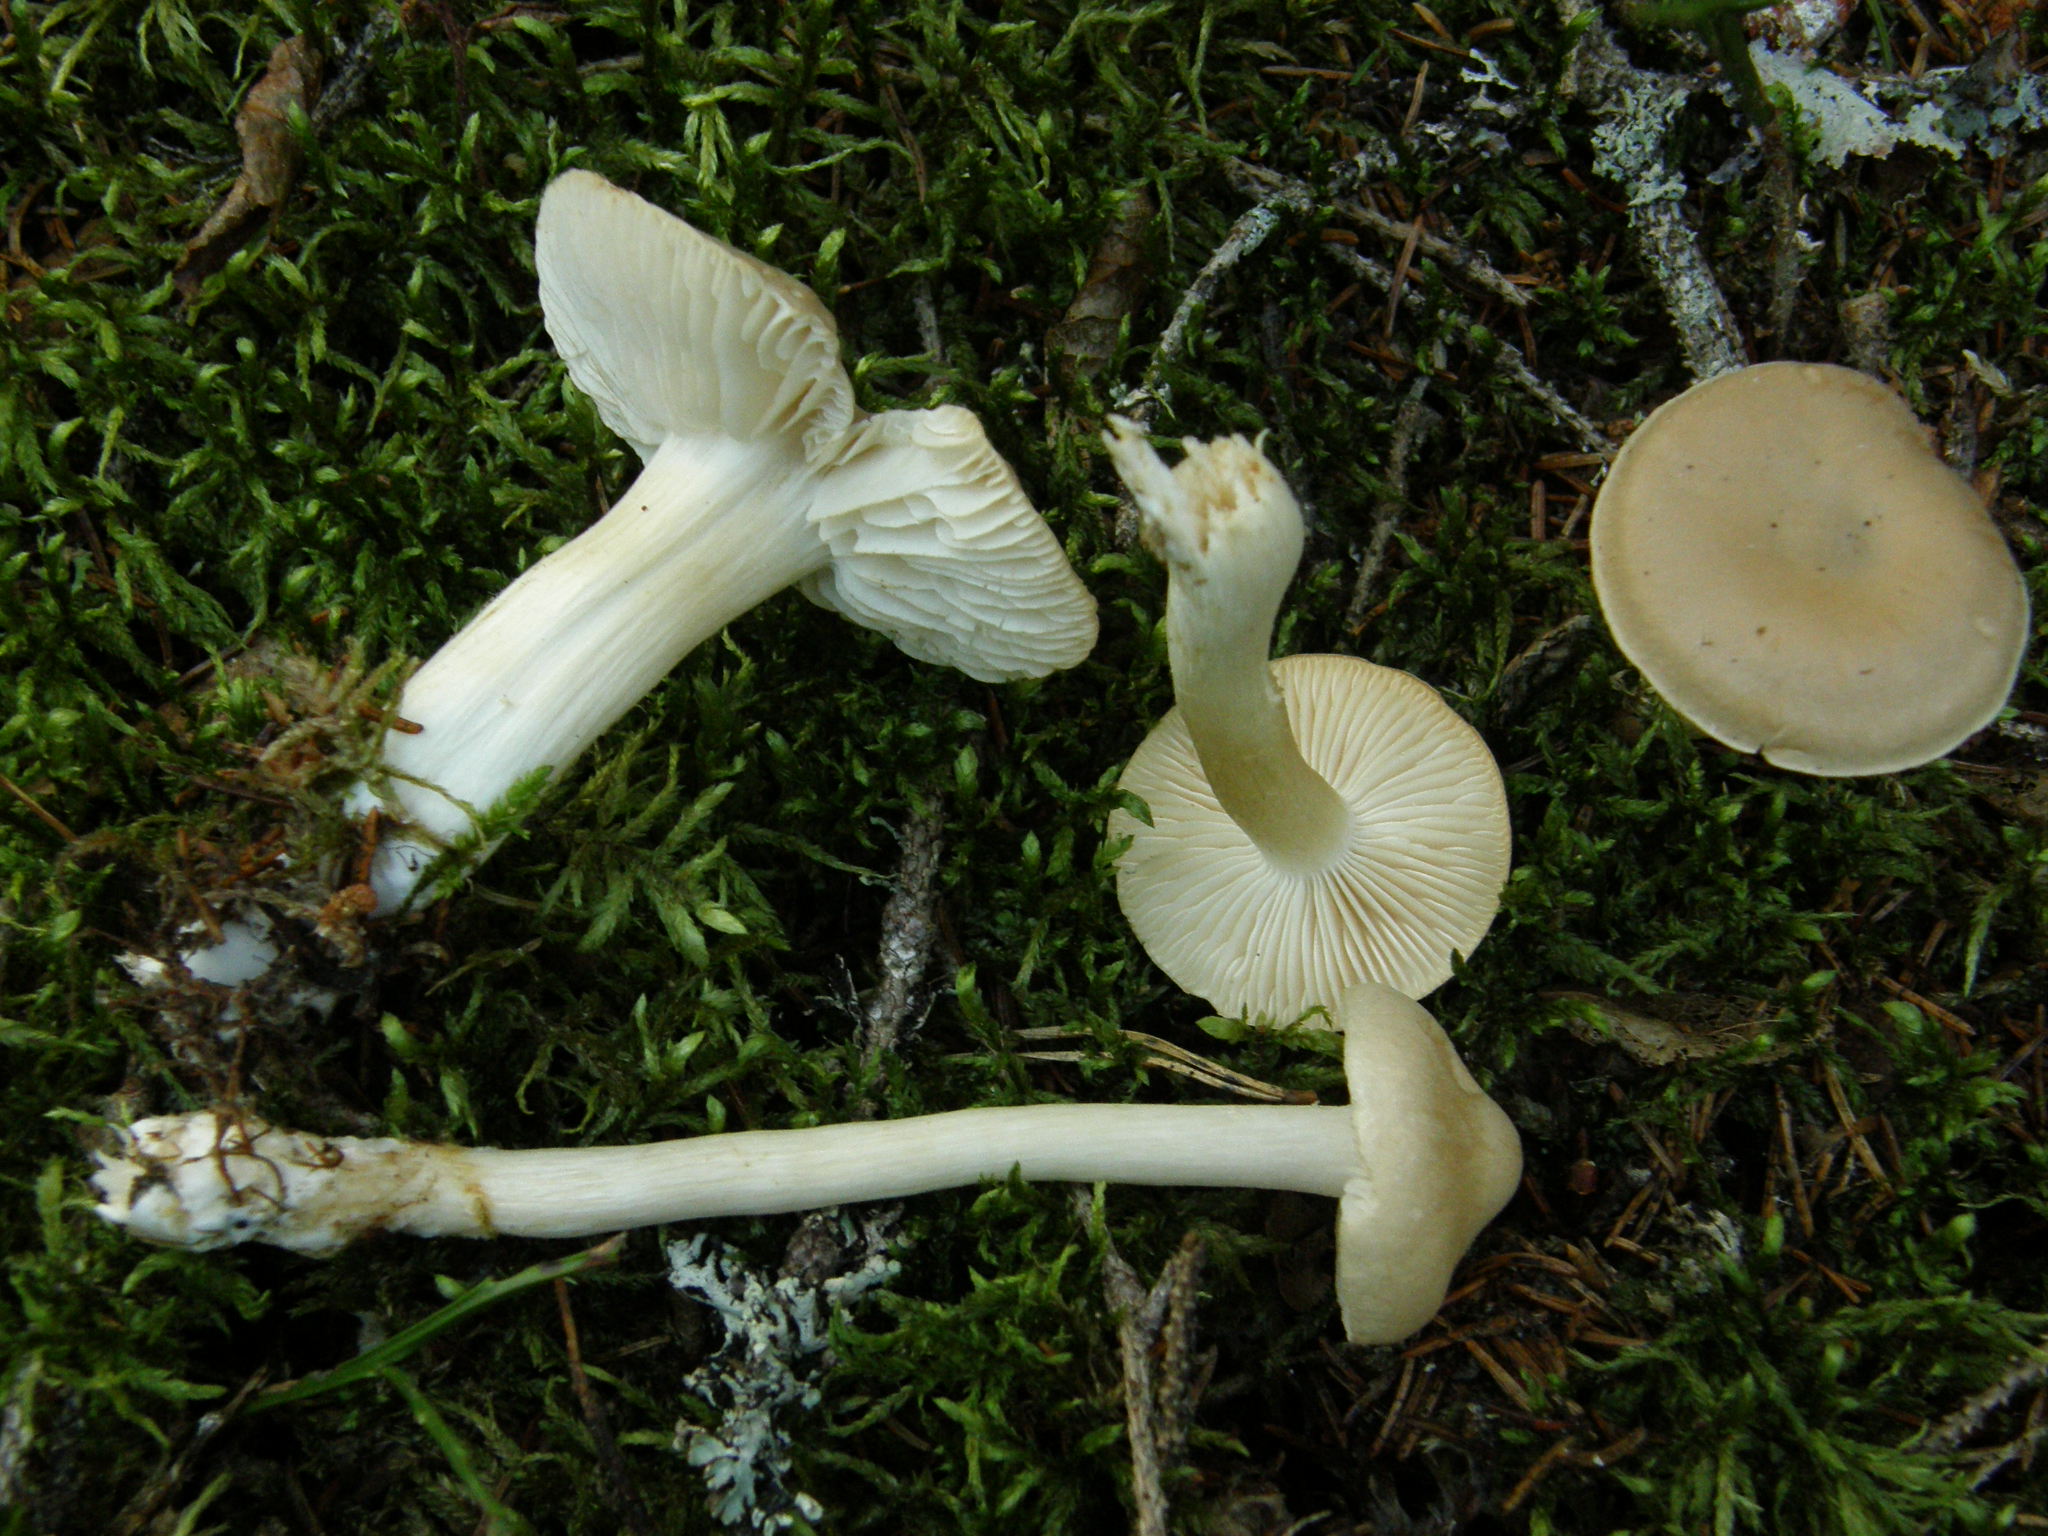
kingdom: Fungi
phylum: Basidiomycota
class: Agaricomycetes
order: Agaricales
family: Tricholomataceae
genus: Tricholoma
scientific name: Tricholoma inamoenum
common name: Gassy knight
